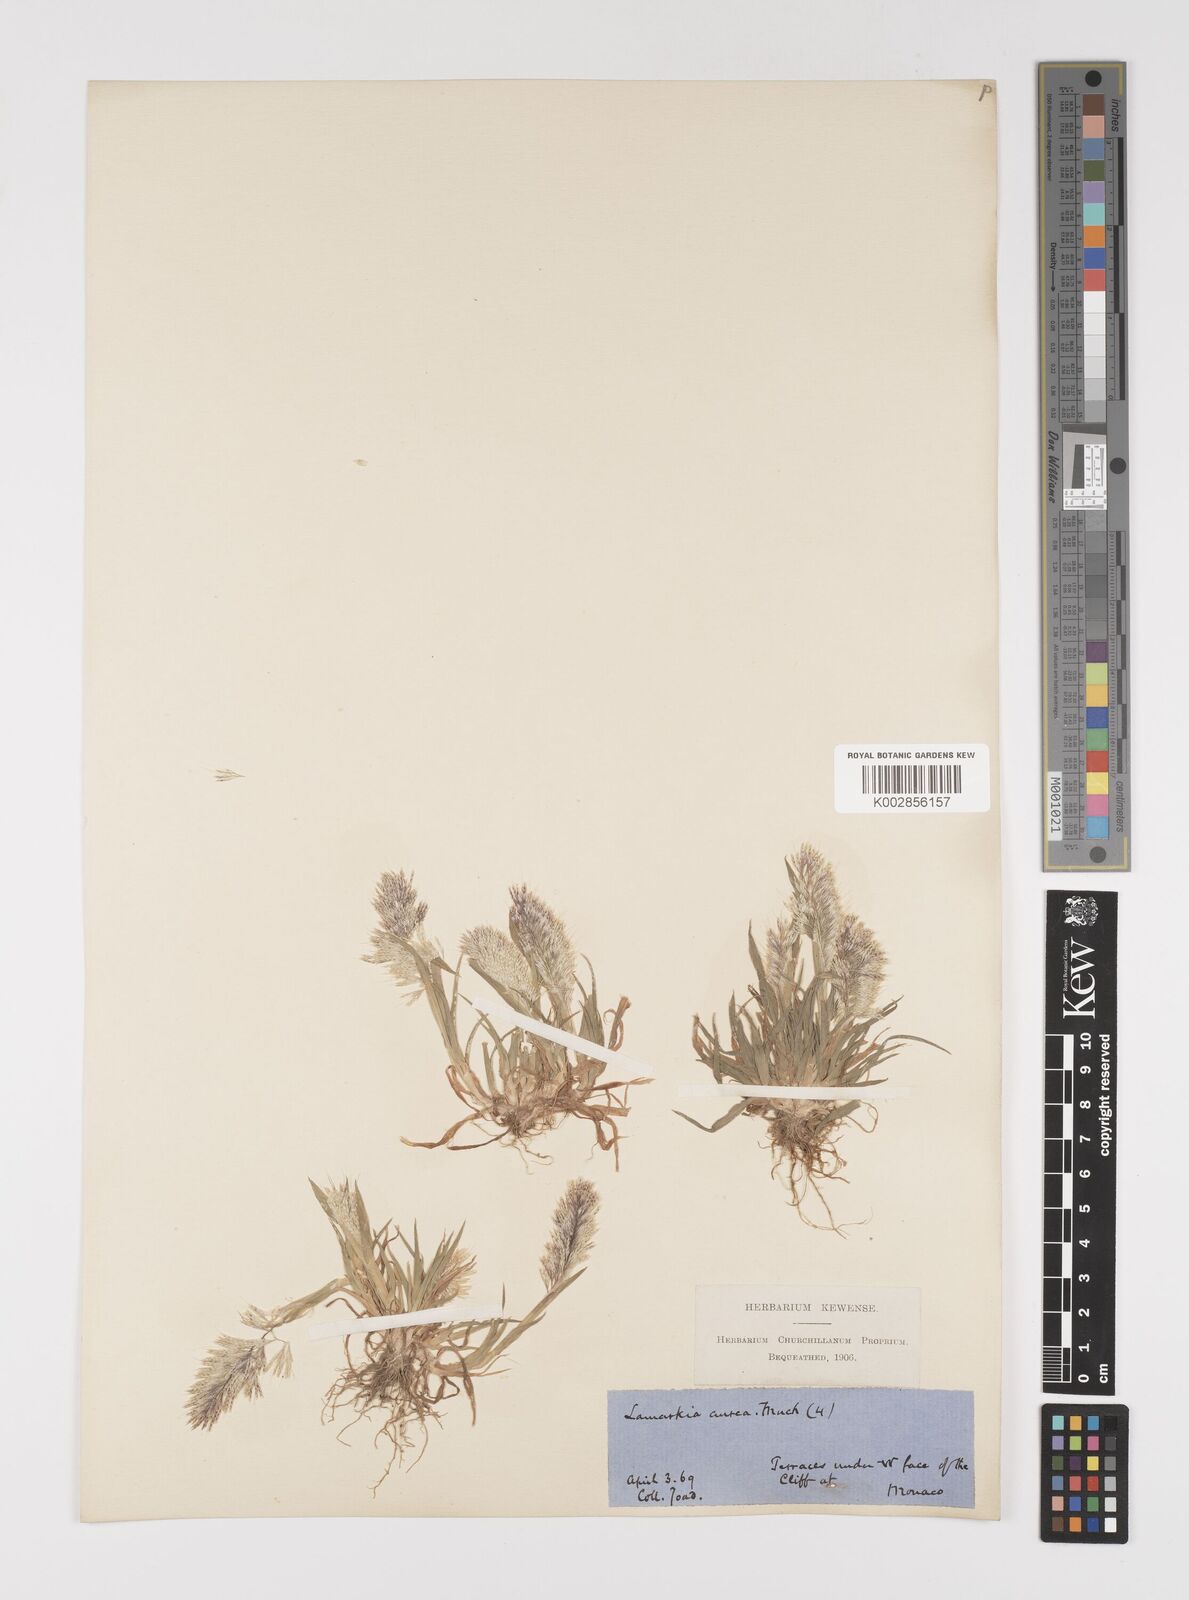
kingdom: Plantae
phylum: Tracheophyta
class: Liliopsida
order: Poales
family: Poaceae
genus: Lamarckia
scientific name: Lamarckia aurea
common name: Golden dog's-tail
